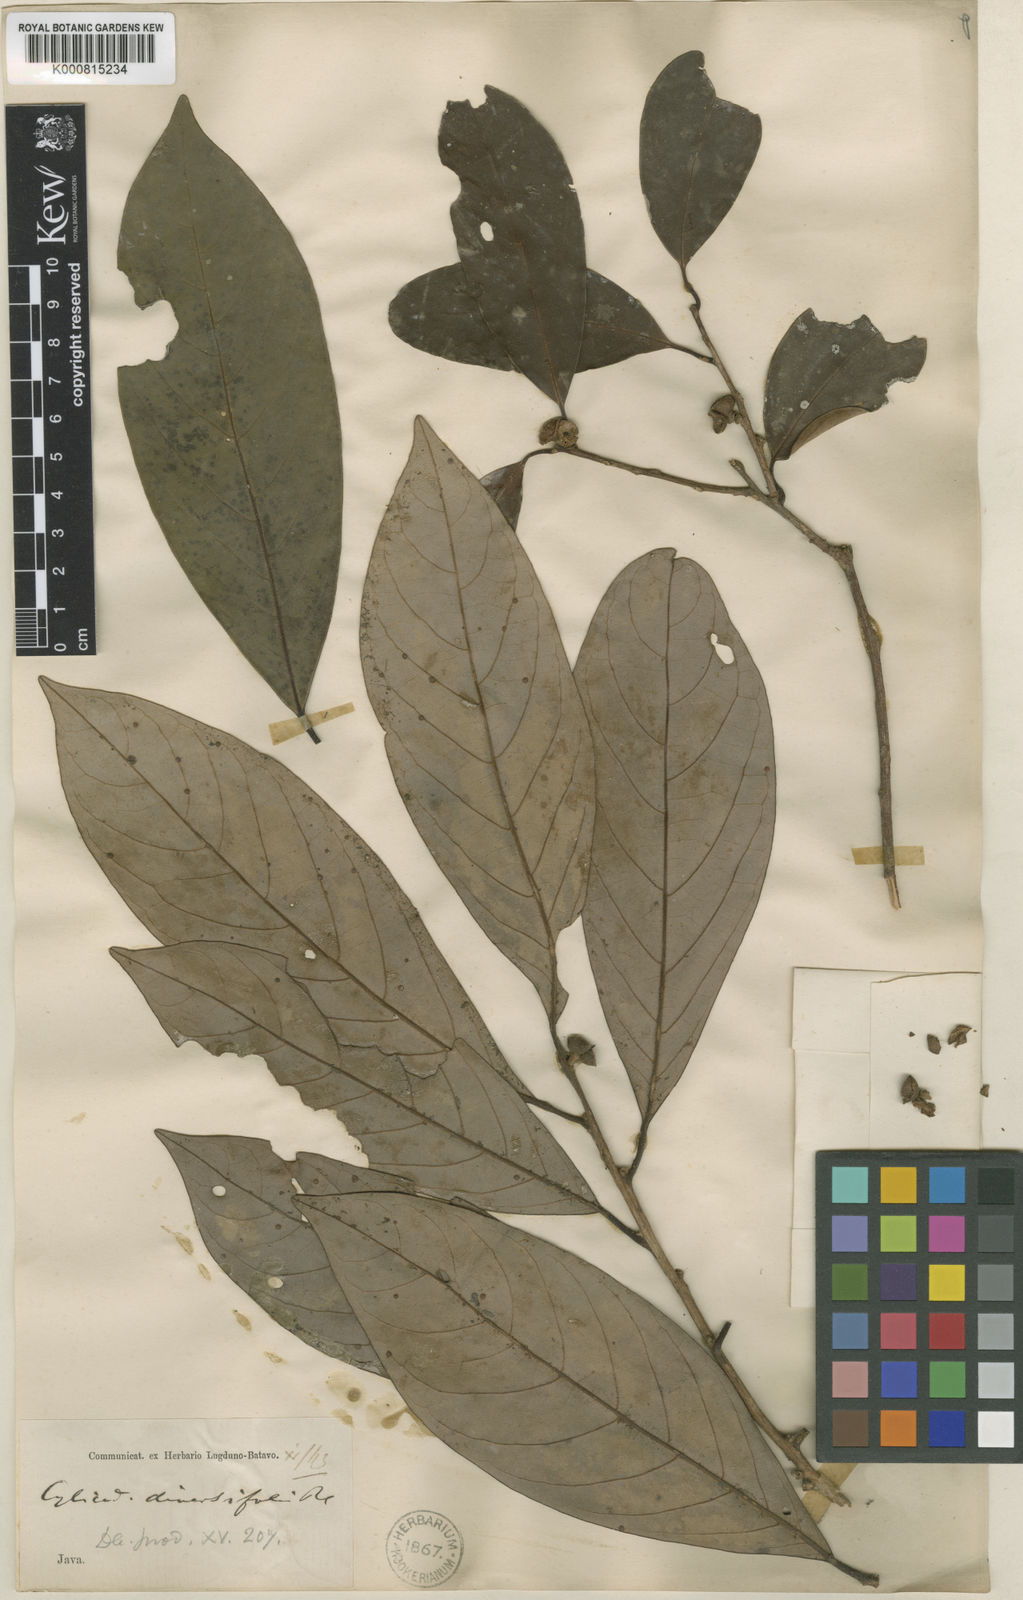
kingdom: Plantae
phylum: Tracheophyta
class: Magnoliopsida
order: Laurales
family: Lauraceae
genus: Litsea
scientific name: Litsea diversifolia
